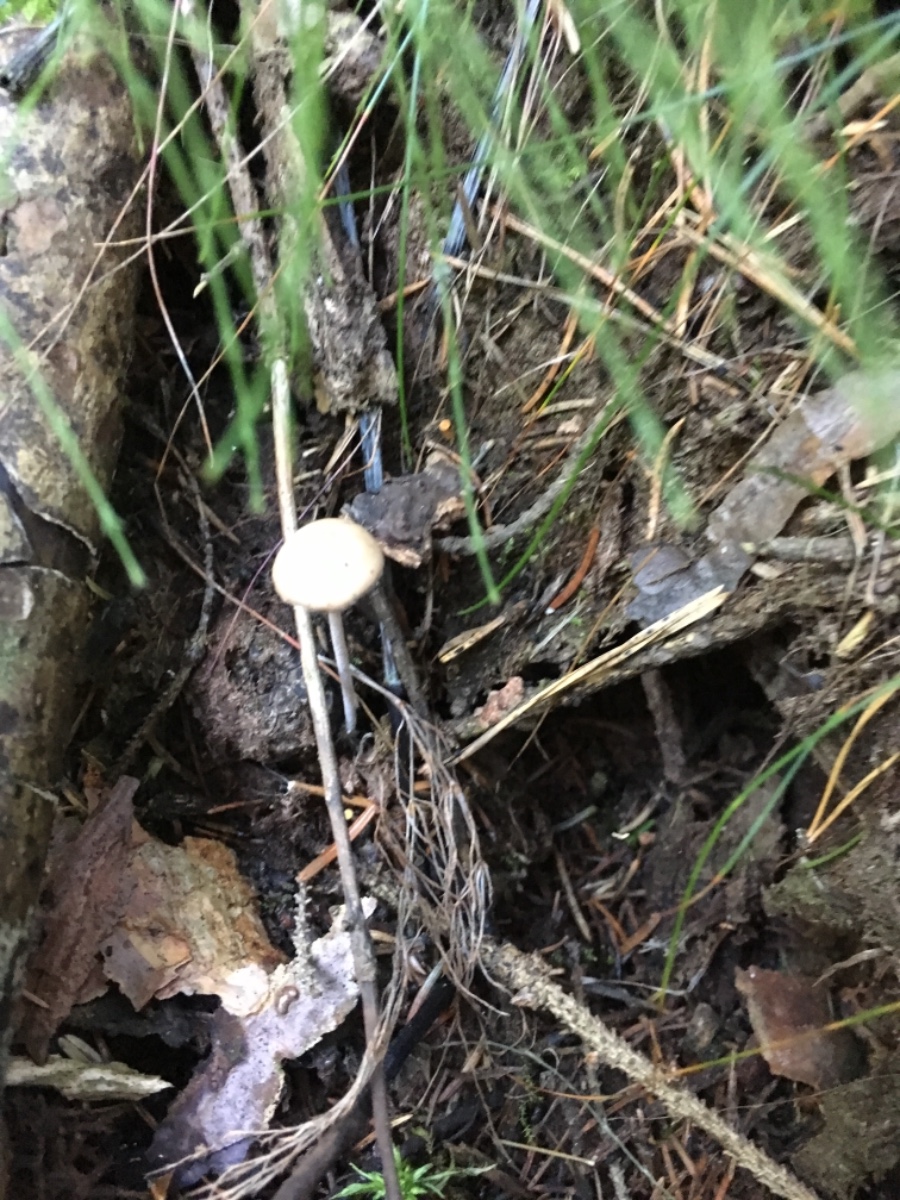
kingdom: Fungi
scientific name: Fungi
